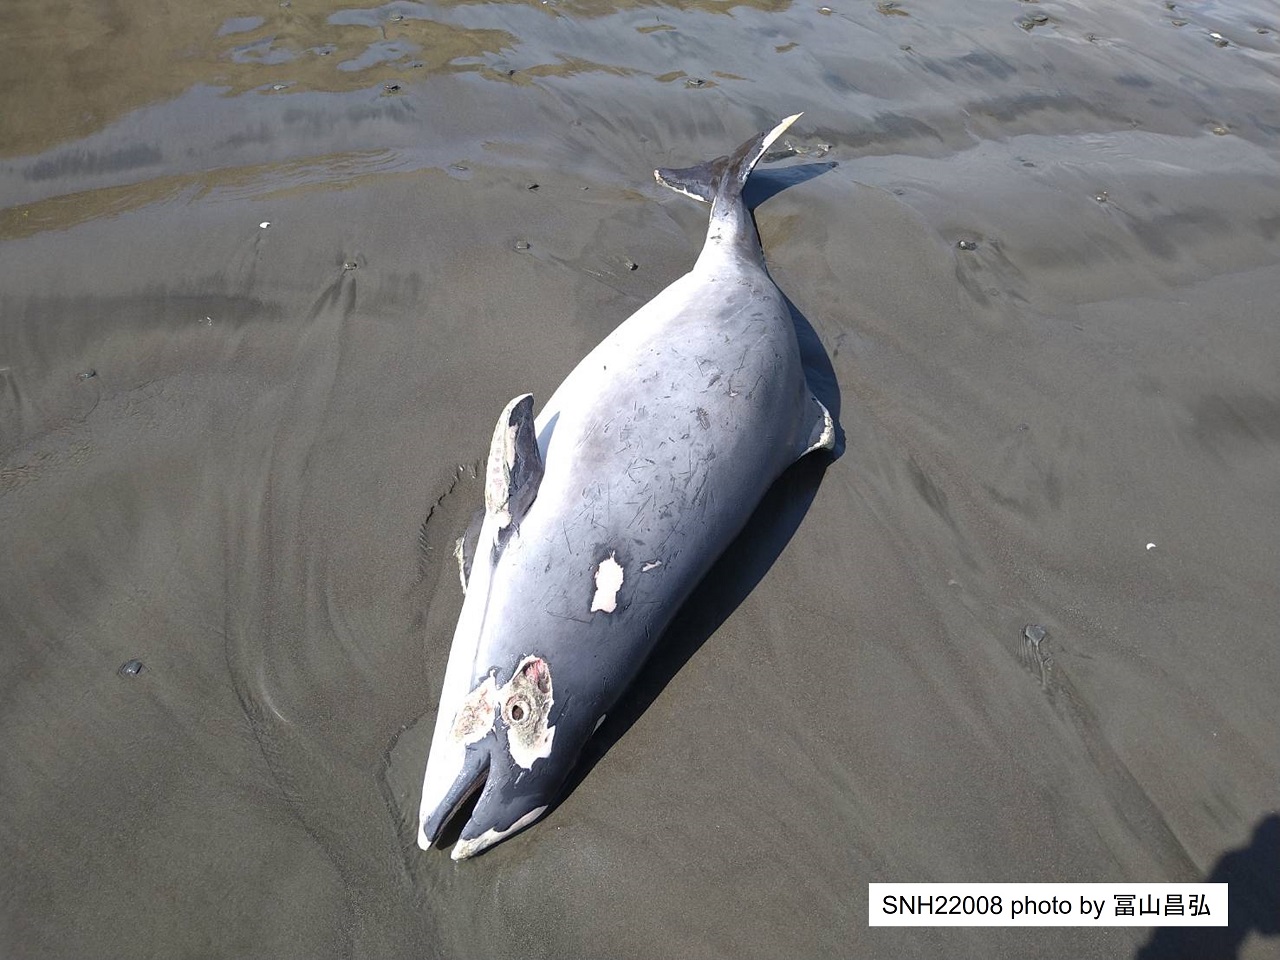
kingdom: Animalia
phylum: Chordata
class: Mammalia
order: Cetacea
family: Phocoenidae
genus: Phocoena
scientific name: Phocoena phocoena
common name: Harbour porpoise
